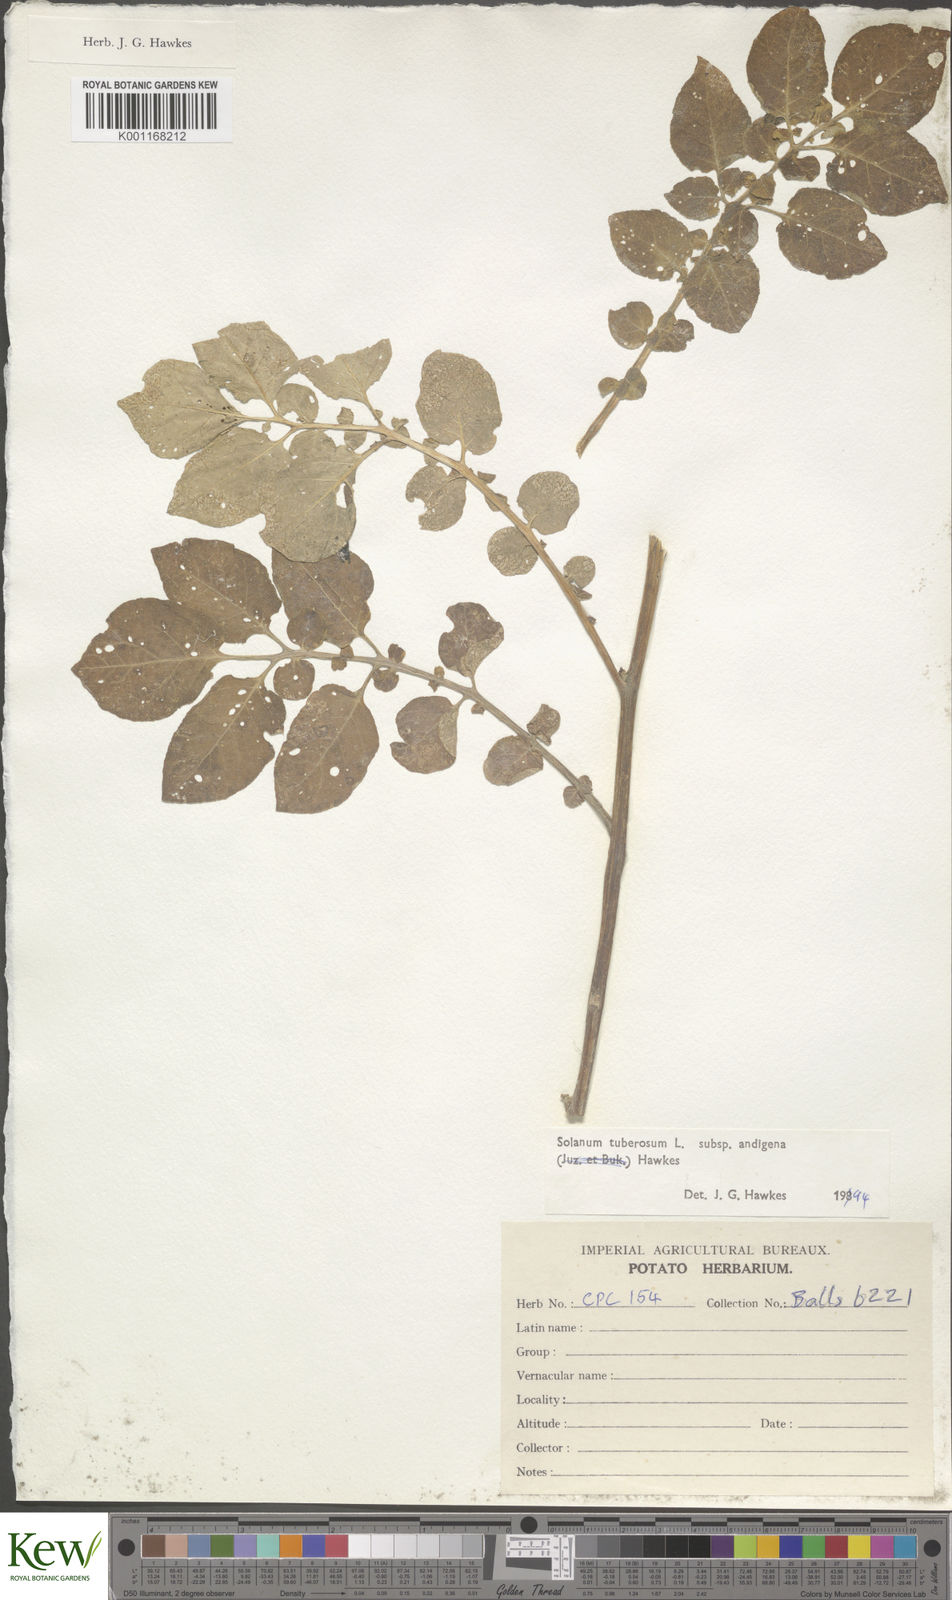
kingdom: Plantae
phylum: Tracheophyta
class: Magnoliopsida
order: Solanales
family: Solanaceae
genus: Solanum
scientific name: Solanum tuberosum
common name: Potato
